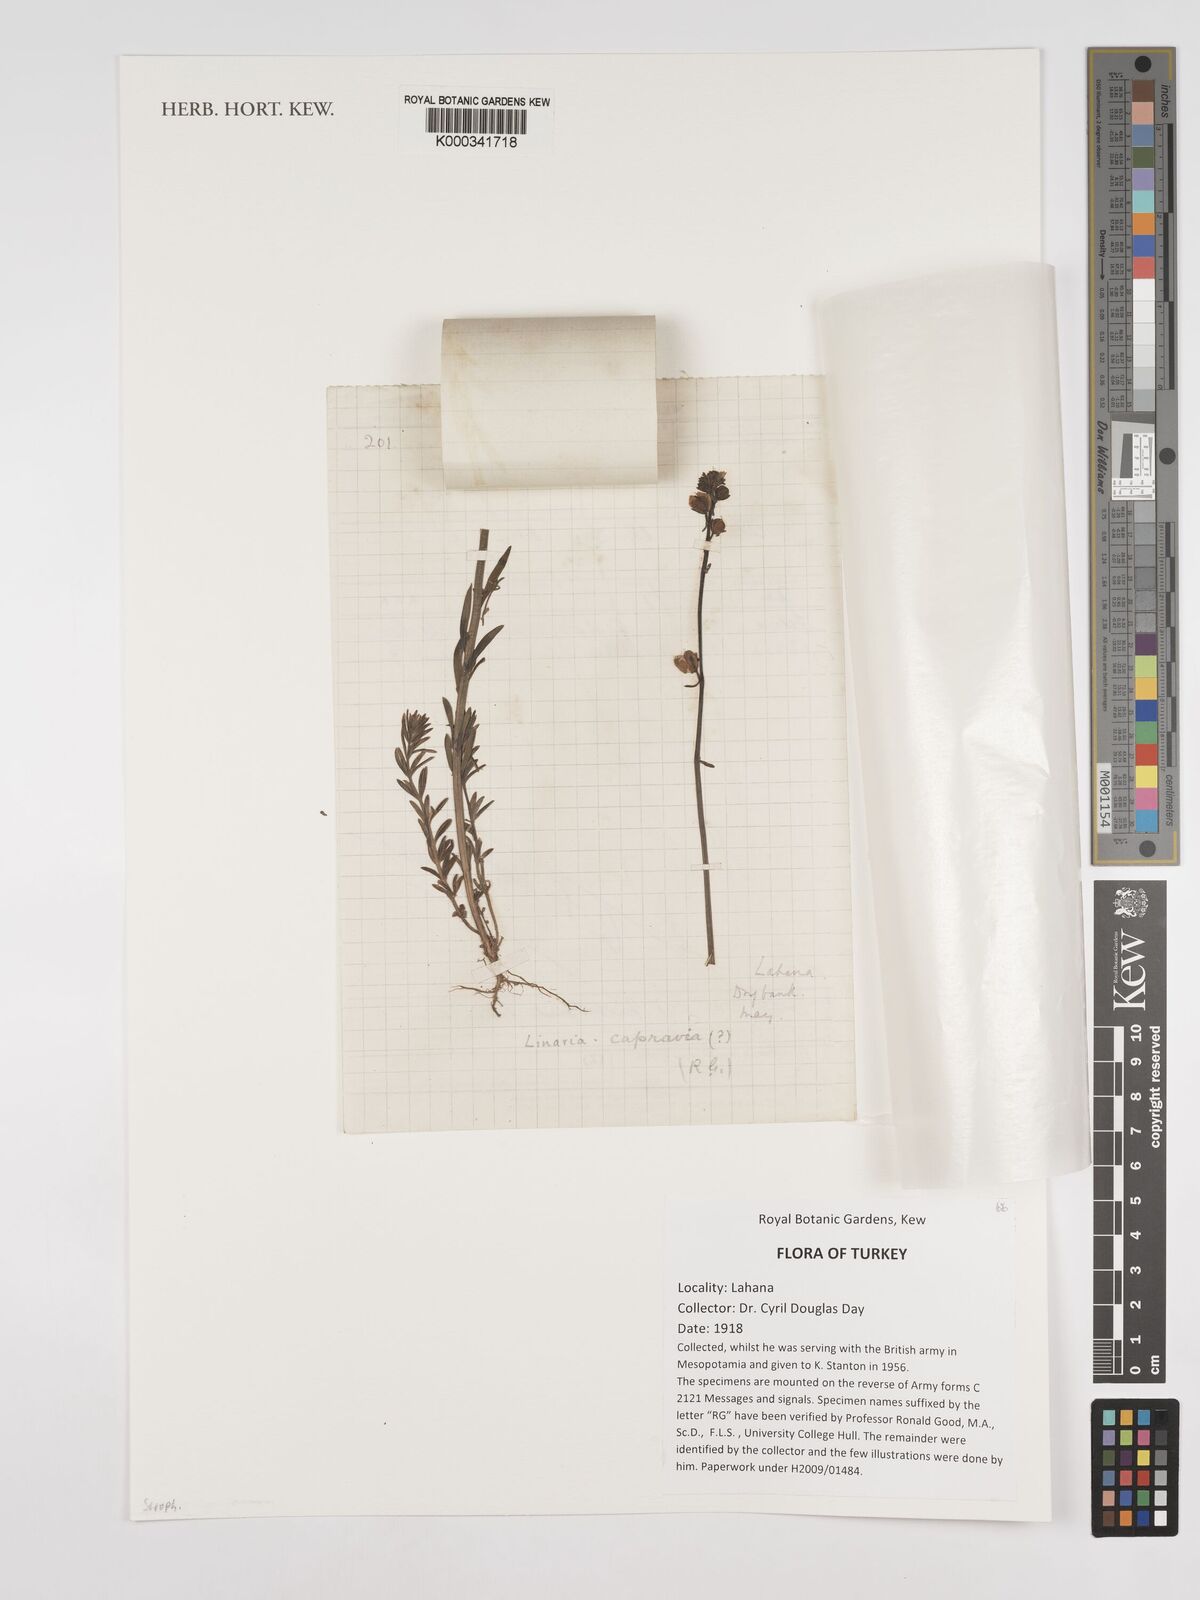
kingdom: Plantae
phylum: Tracheophyta
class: Magnoliopsida
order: Lamiales
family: Plantaginaceae
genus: Linaria
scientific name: Linaria capraria
